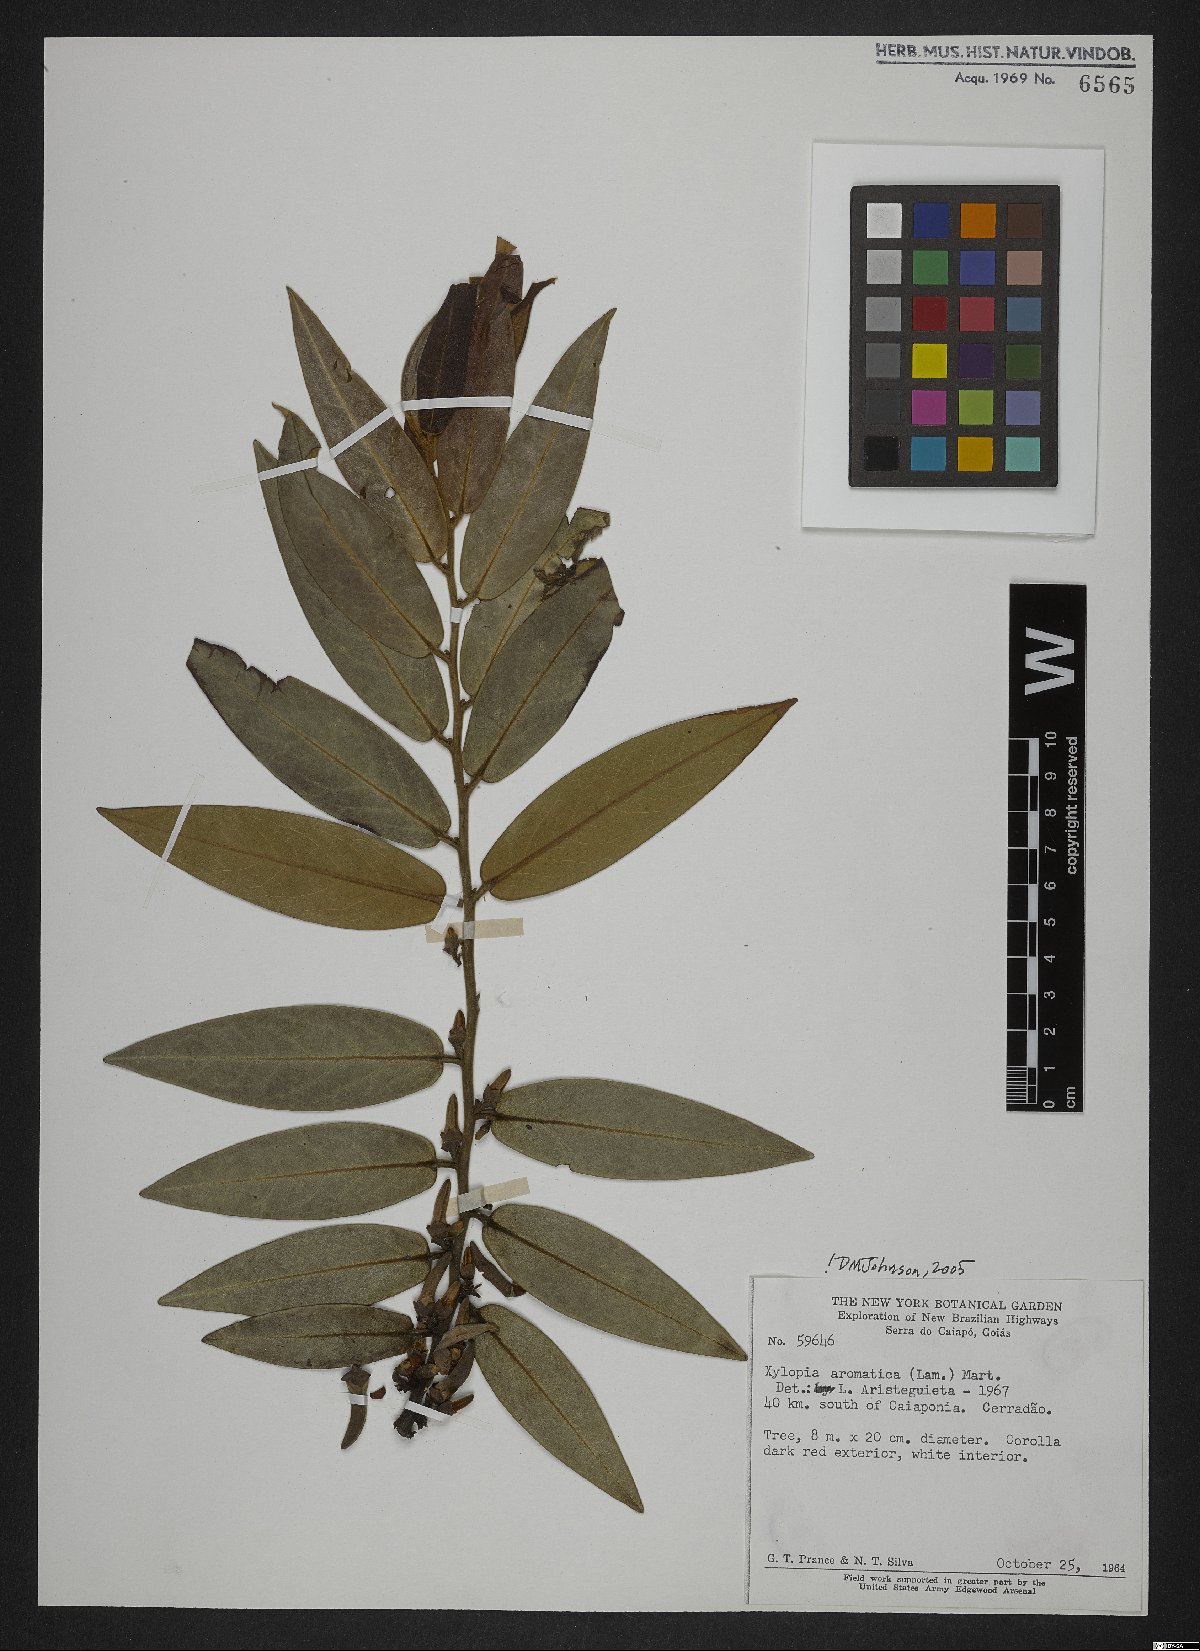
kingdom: Plantae
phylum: Tracheophyta
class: Magnoliopsida
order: Magnoliales
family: Annonaceae
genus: Xylopia
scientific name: Xylopia aromatica
